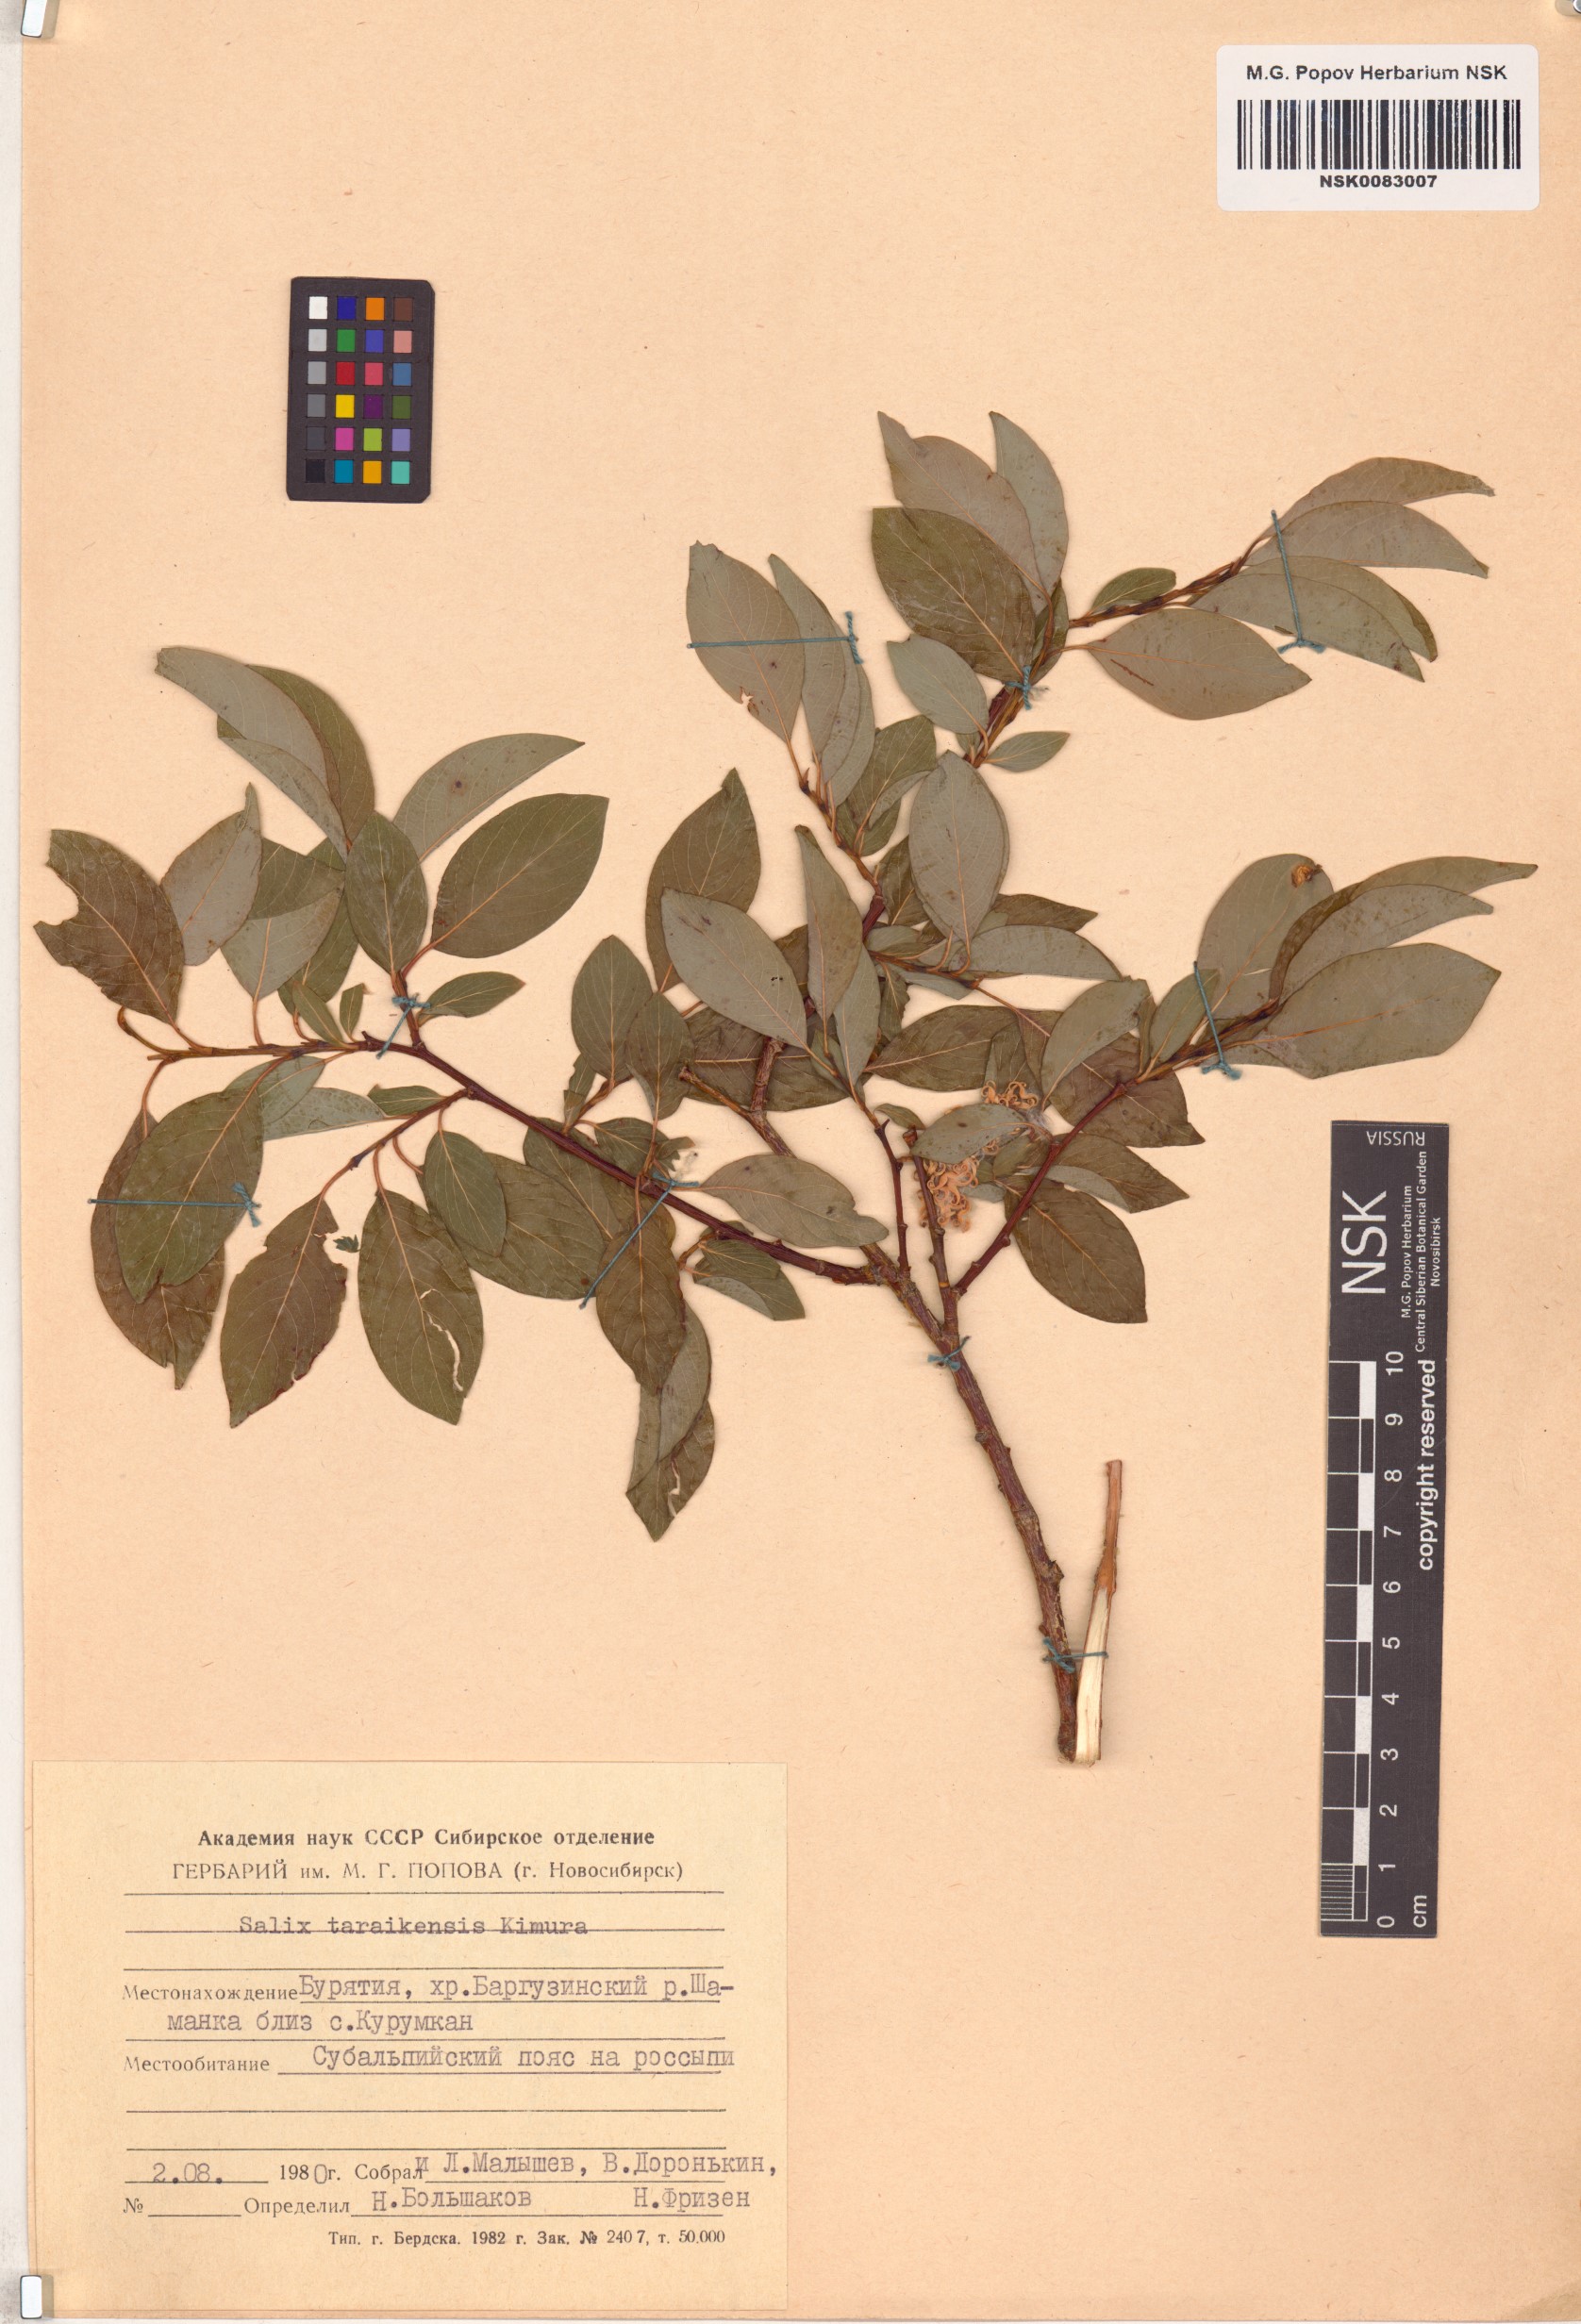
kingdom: Plantae
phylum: Tracheophyta
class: Magnoliopsida
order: Malpighiales
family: Salicaceae
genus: Salix
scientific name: Salix taraikensis
